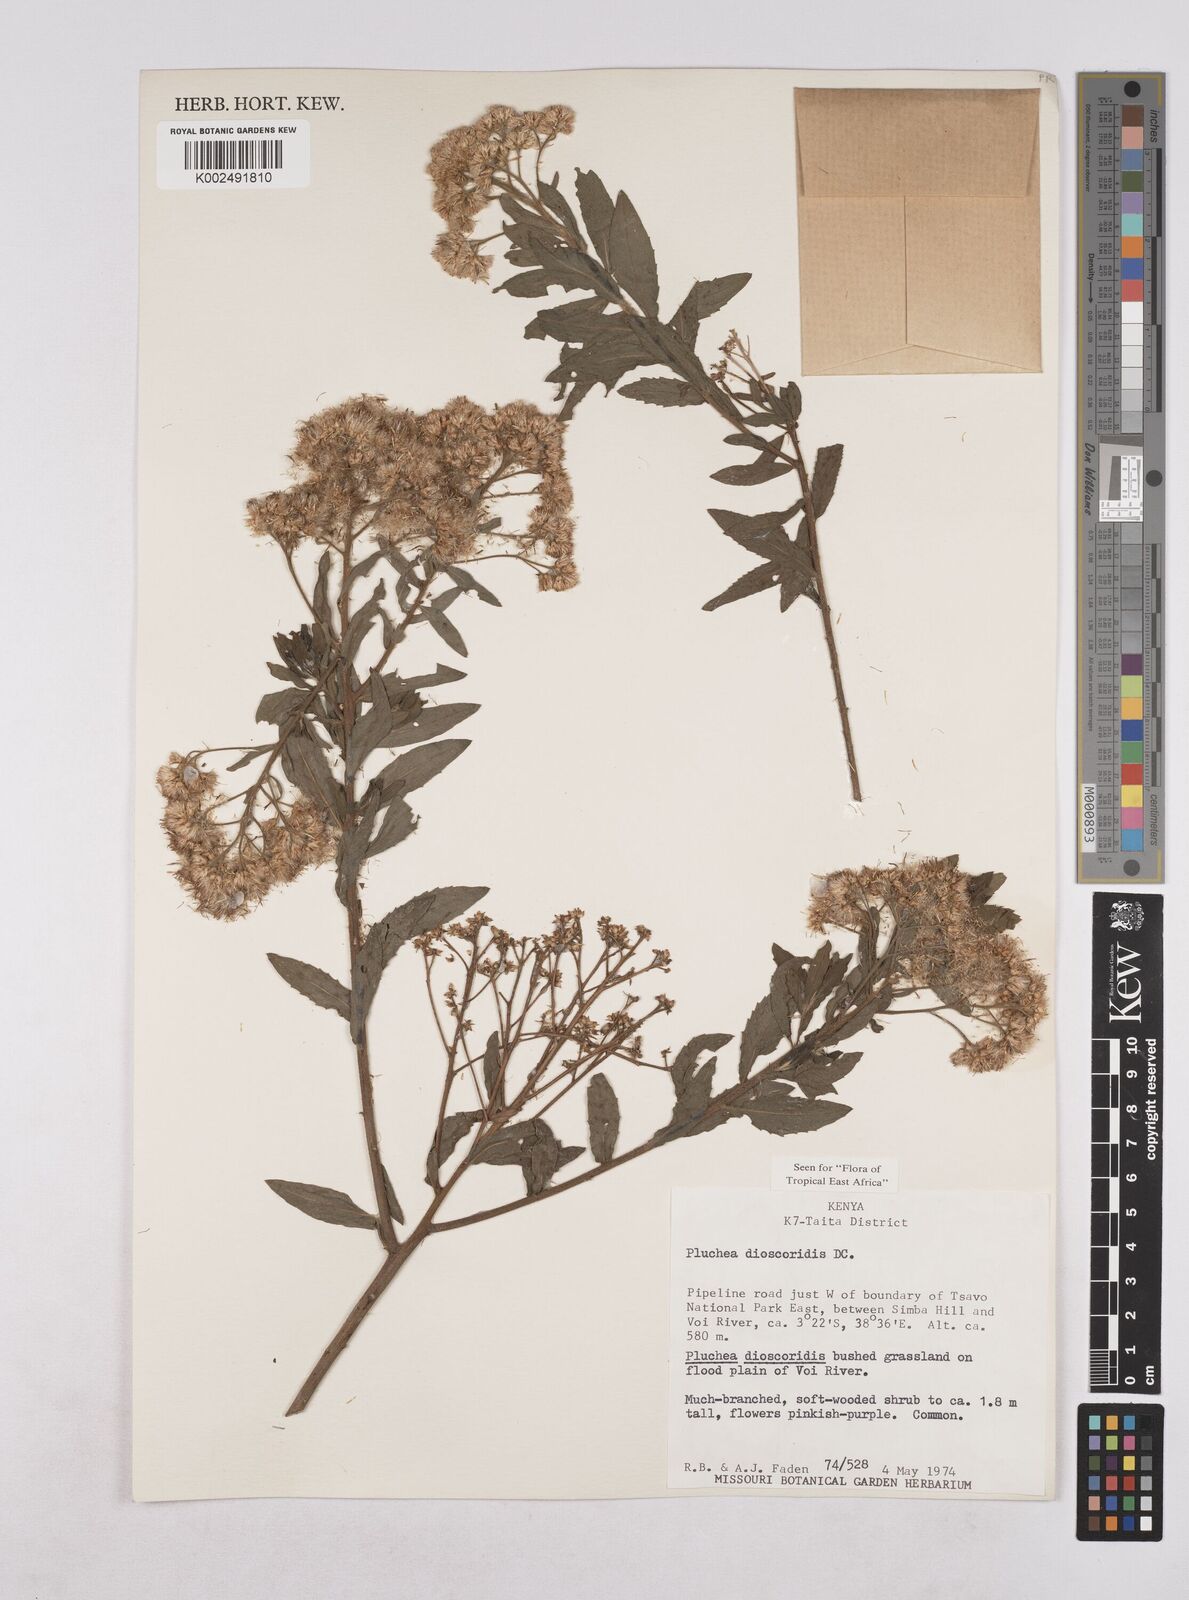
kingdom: Plantae
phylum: Tracheophyta
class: Magnoliopsida
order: Asterales
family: Asteraceae
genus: Pluchea
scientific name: Pluchea dioscoridis
